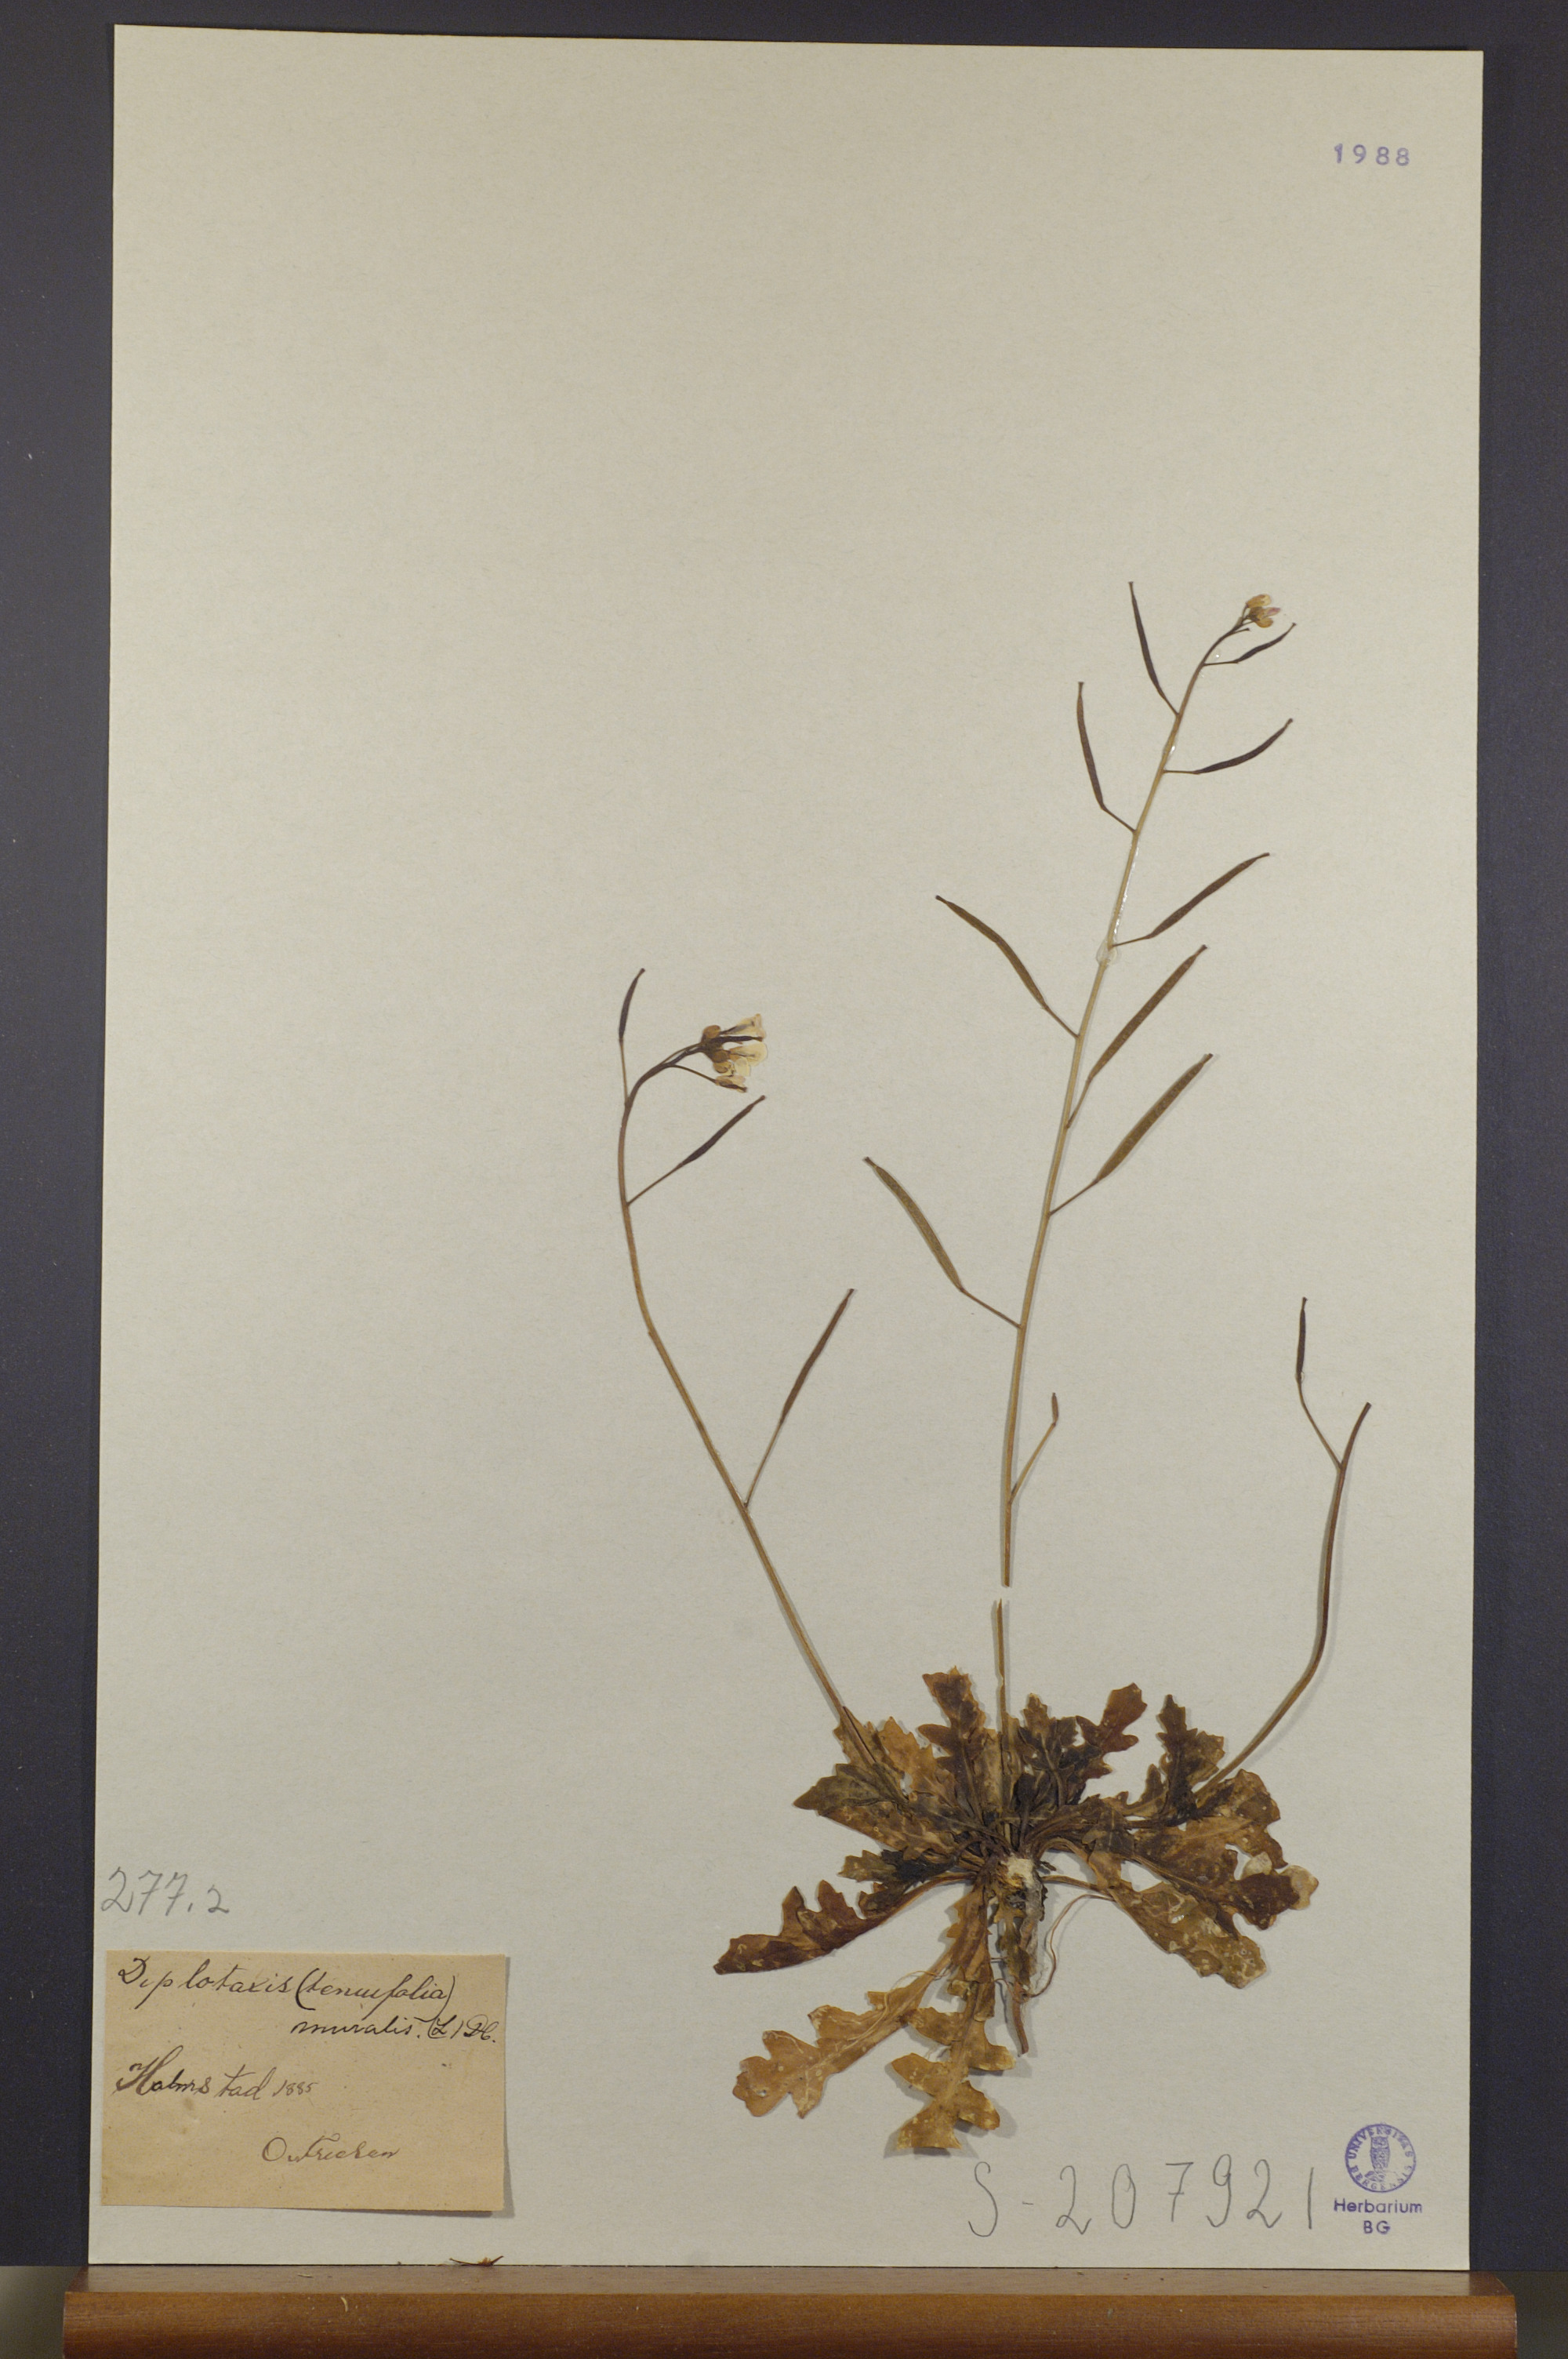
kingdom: Plantae
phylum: Tracheophyta
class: Magnoliopsida
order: Brassicales
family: Brassicaceae
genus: Diplotaxis
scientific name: Diplotaxis
